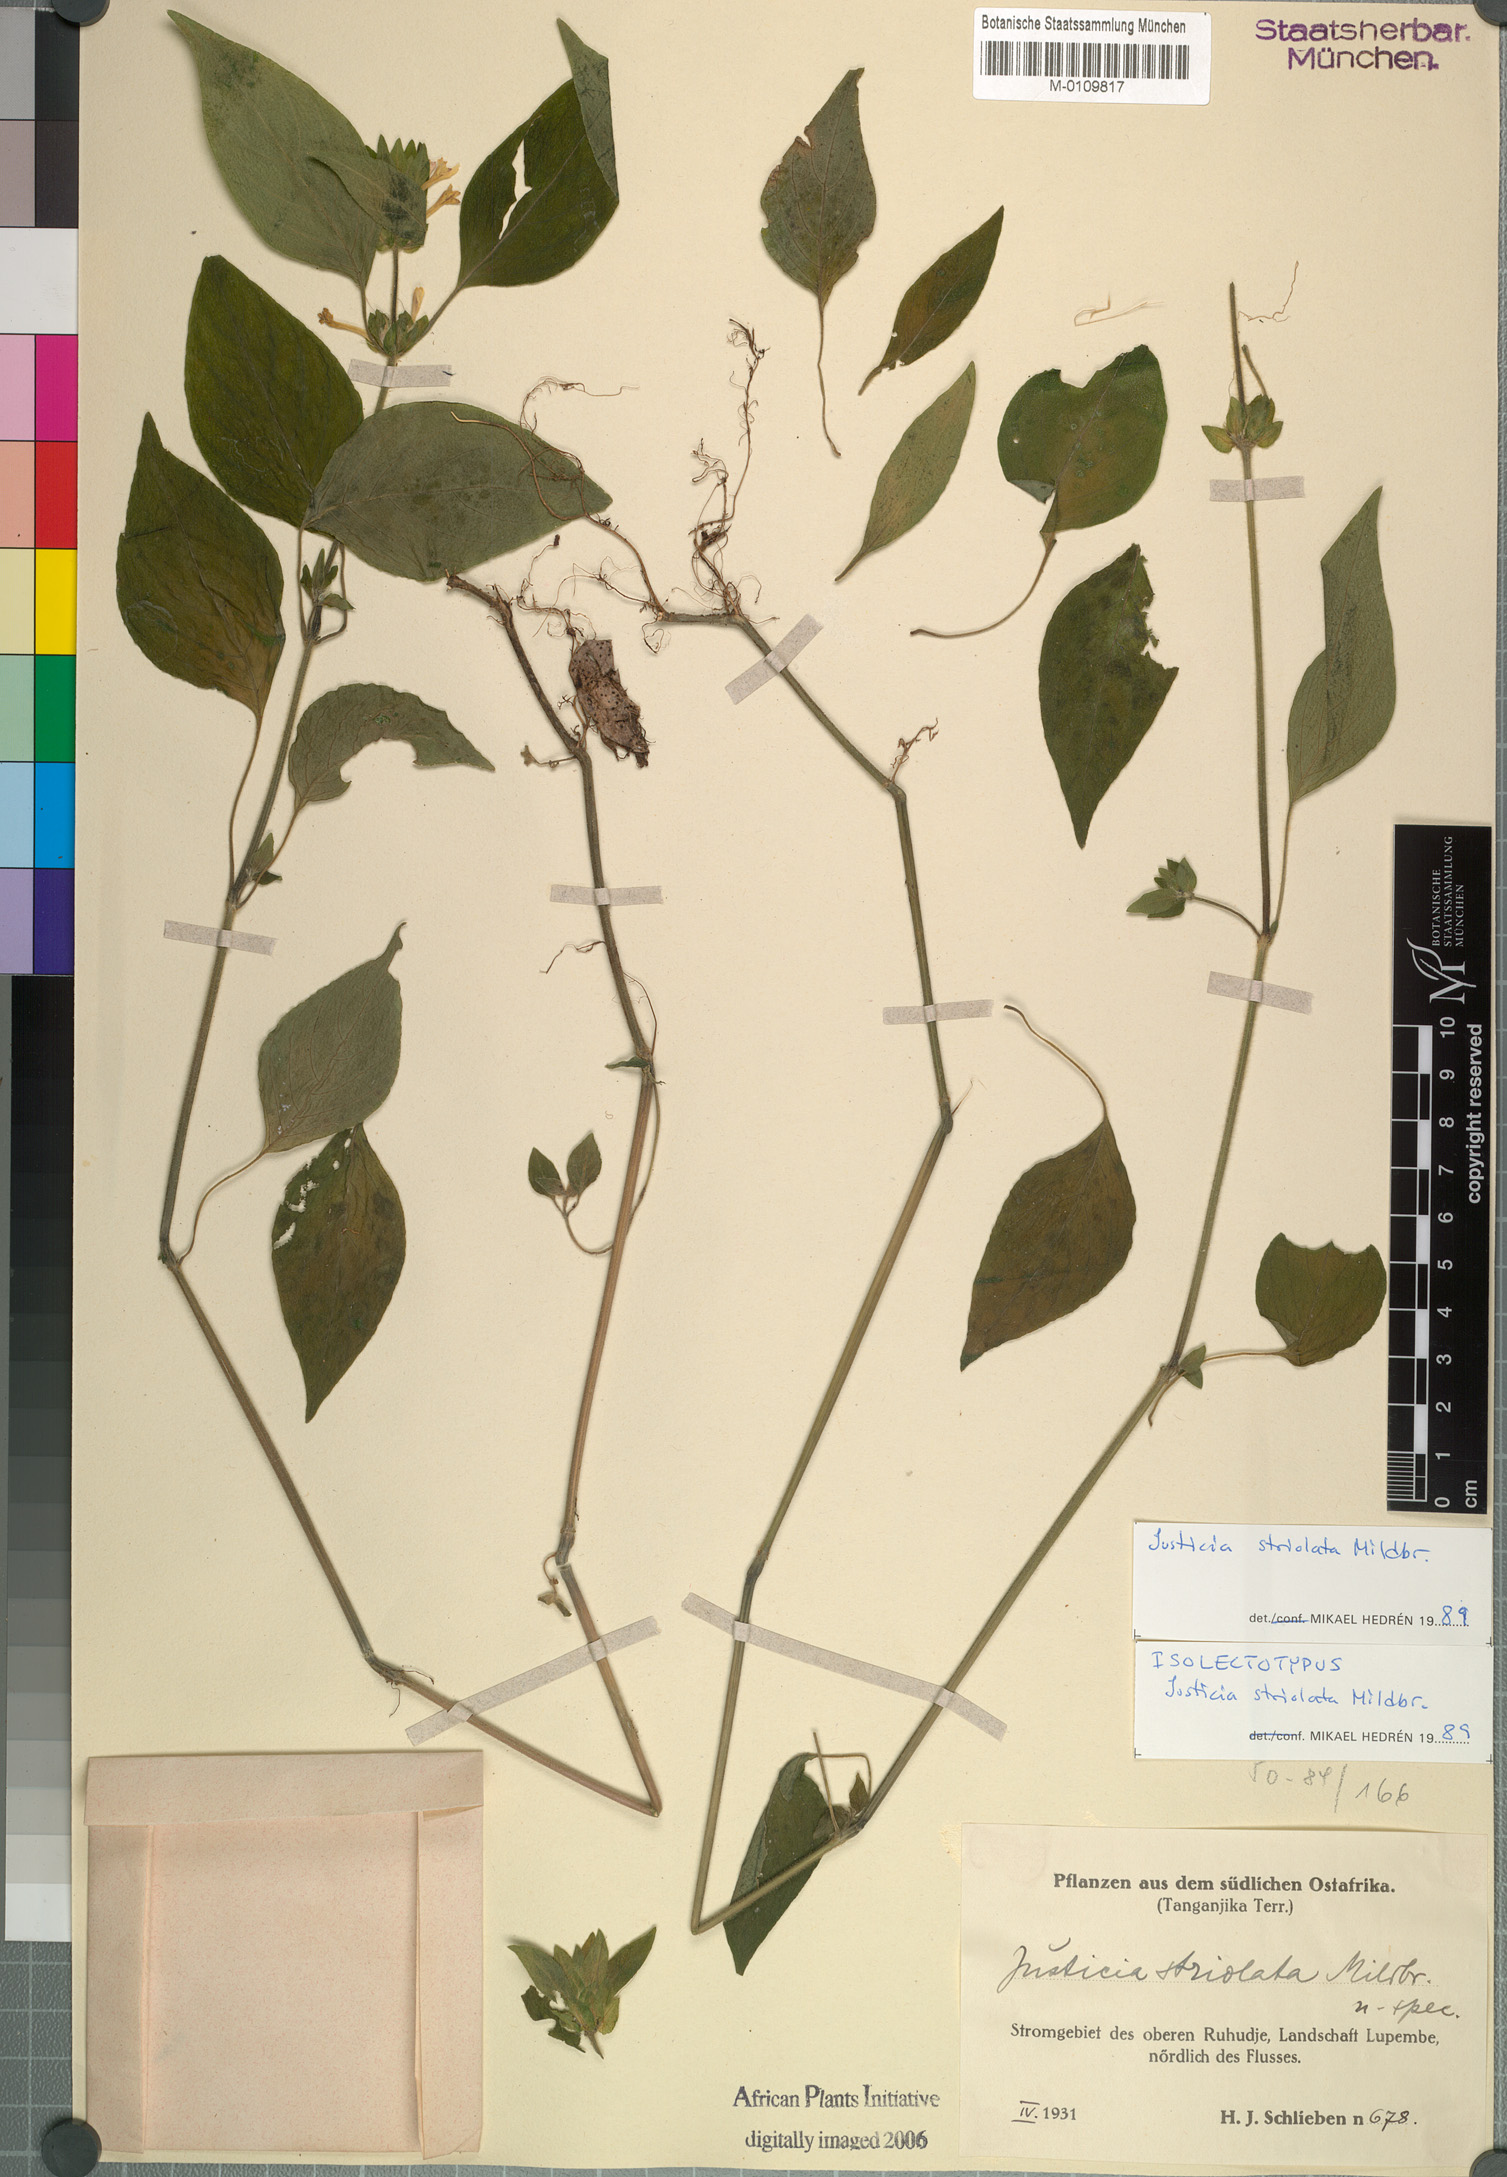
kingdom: Plantae
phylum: Tracheophyta
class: Magnoliopsida
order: Lamiales
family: Acanthaceae
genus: Justicia
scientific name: Justicia striolata
